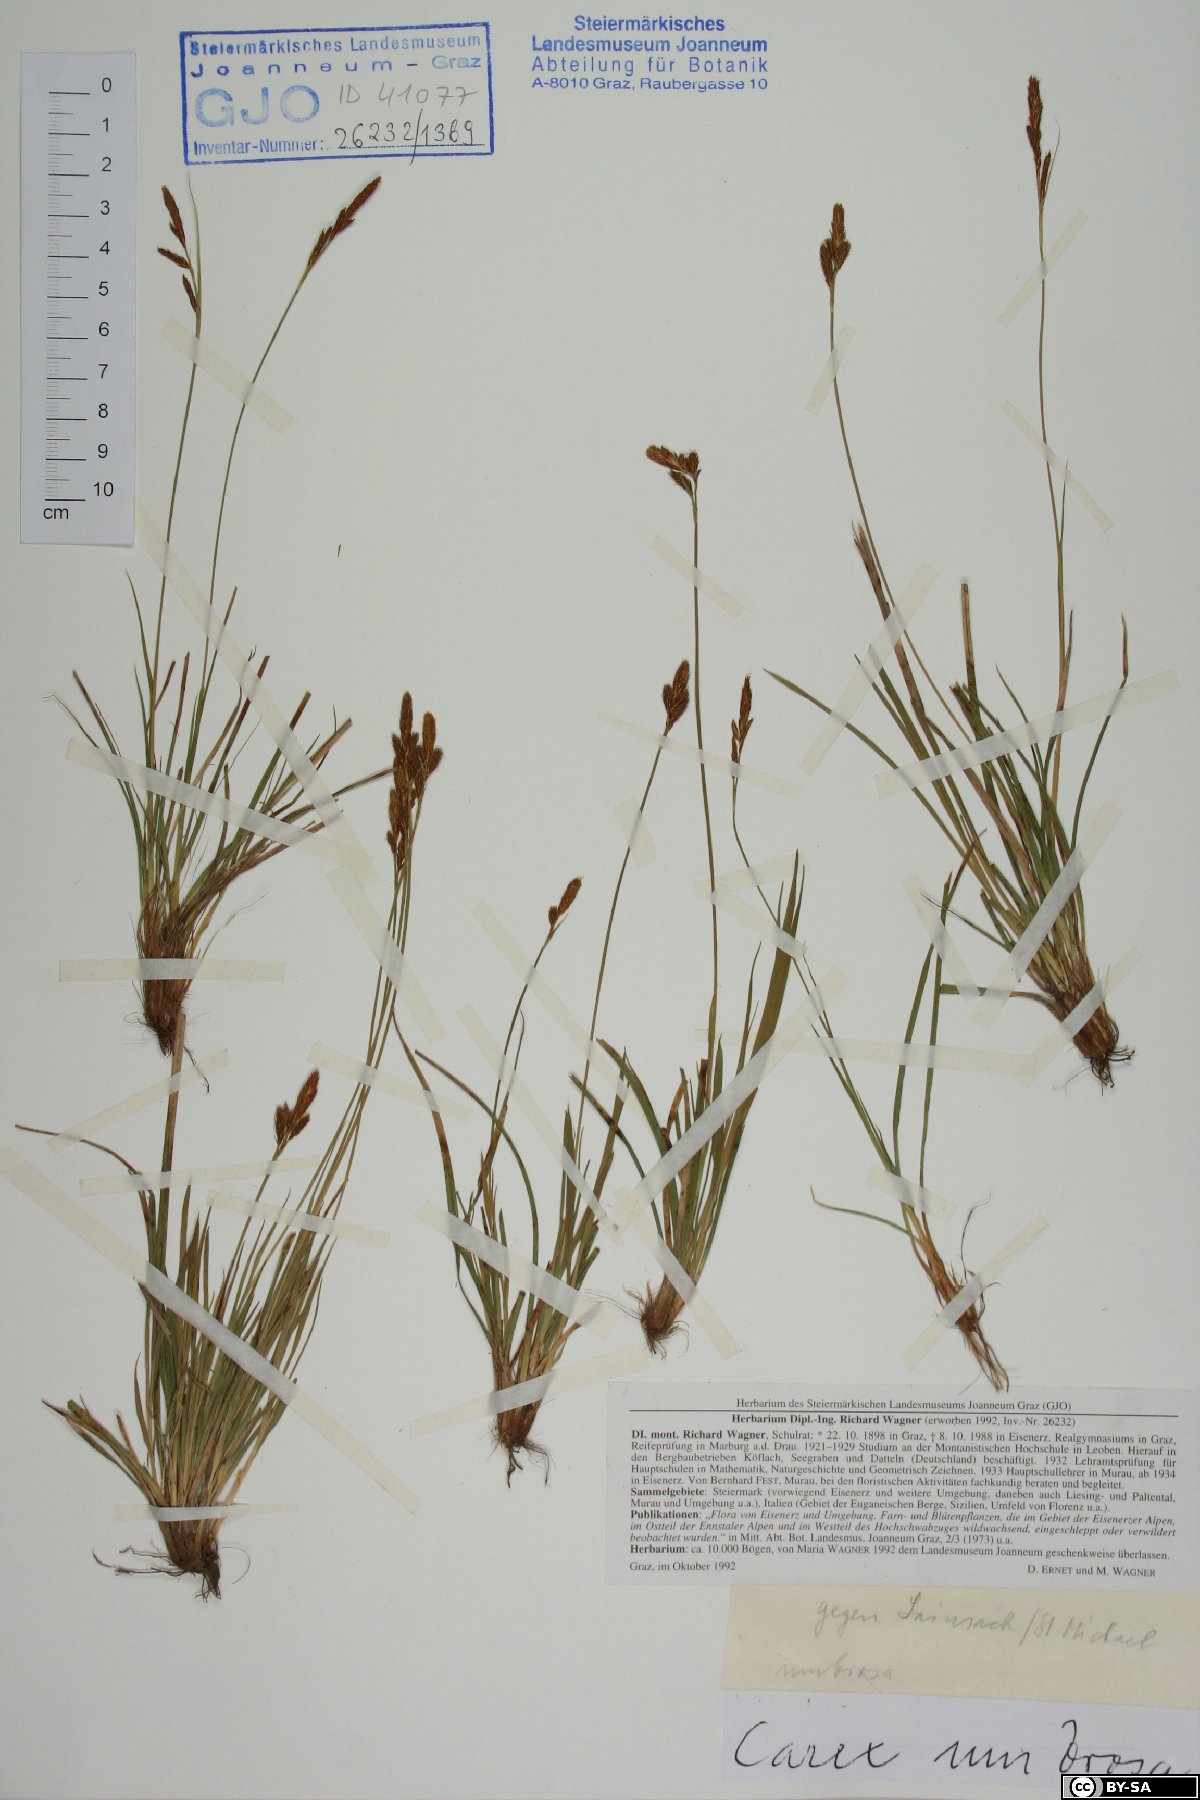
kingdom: Plantae
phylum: Tracheophyta
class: Liliopsida
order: Poales
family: Cyperaceae
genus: Carex
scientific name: Carex umbrosa
